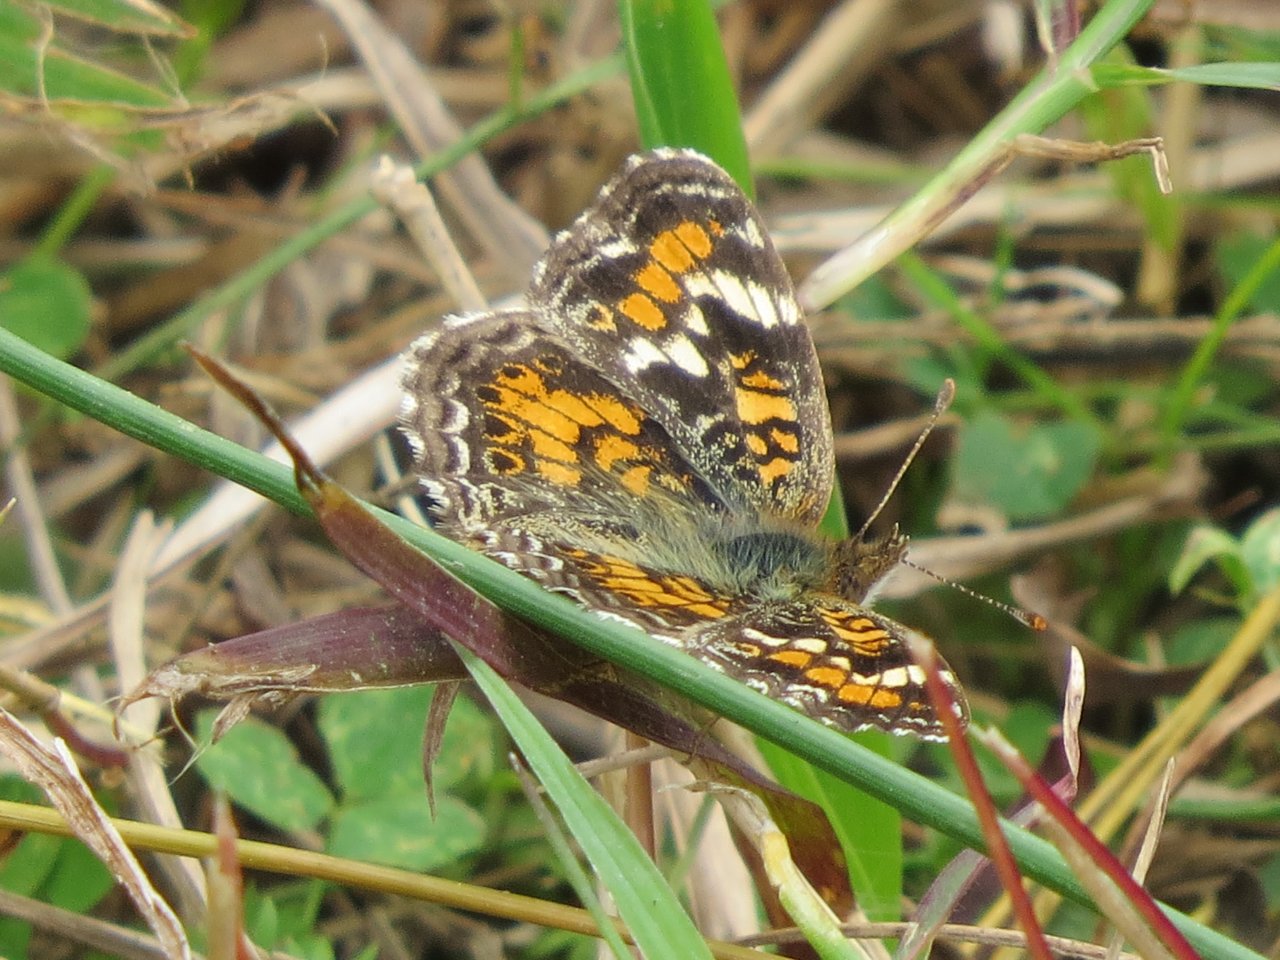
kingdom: Animalia
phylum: Arthropoda
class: Insecta
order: Lepidoptera
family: Nymphalidae
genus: Phyciodes
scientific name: Phyciodes phaon
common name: Phaon Crescent
